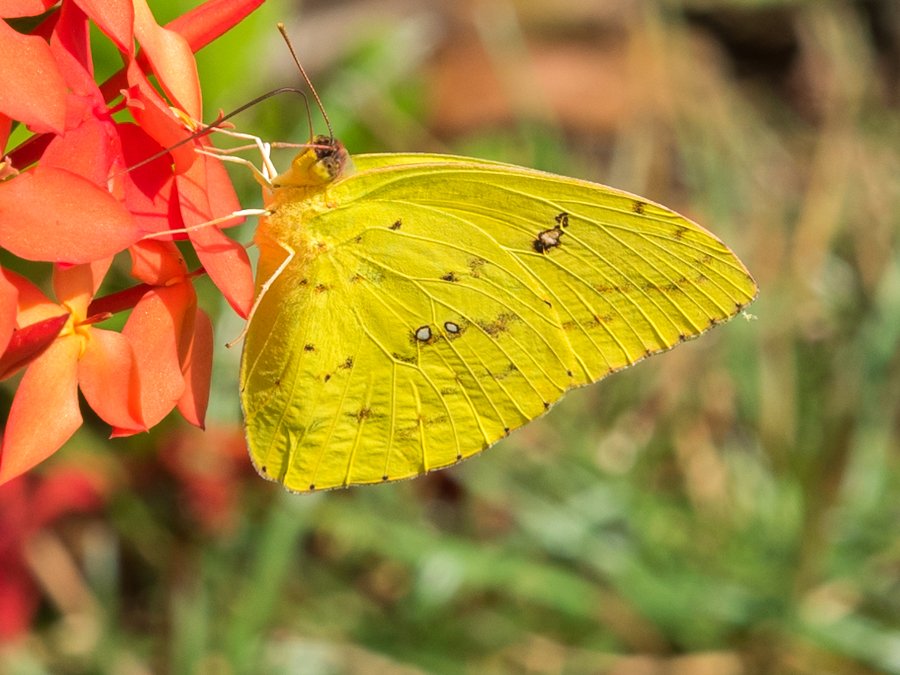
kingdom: Animalia
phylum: Arthropoda
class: Insecta
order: Lepidoptera
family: Pieridae
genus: Phoebis
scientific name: Phoebis sennae
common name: Cloudless Sulphur
